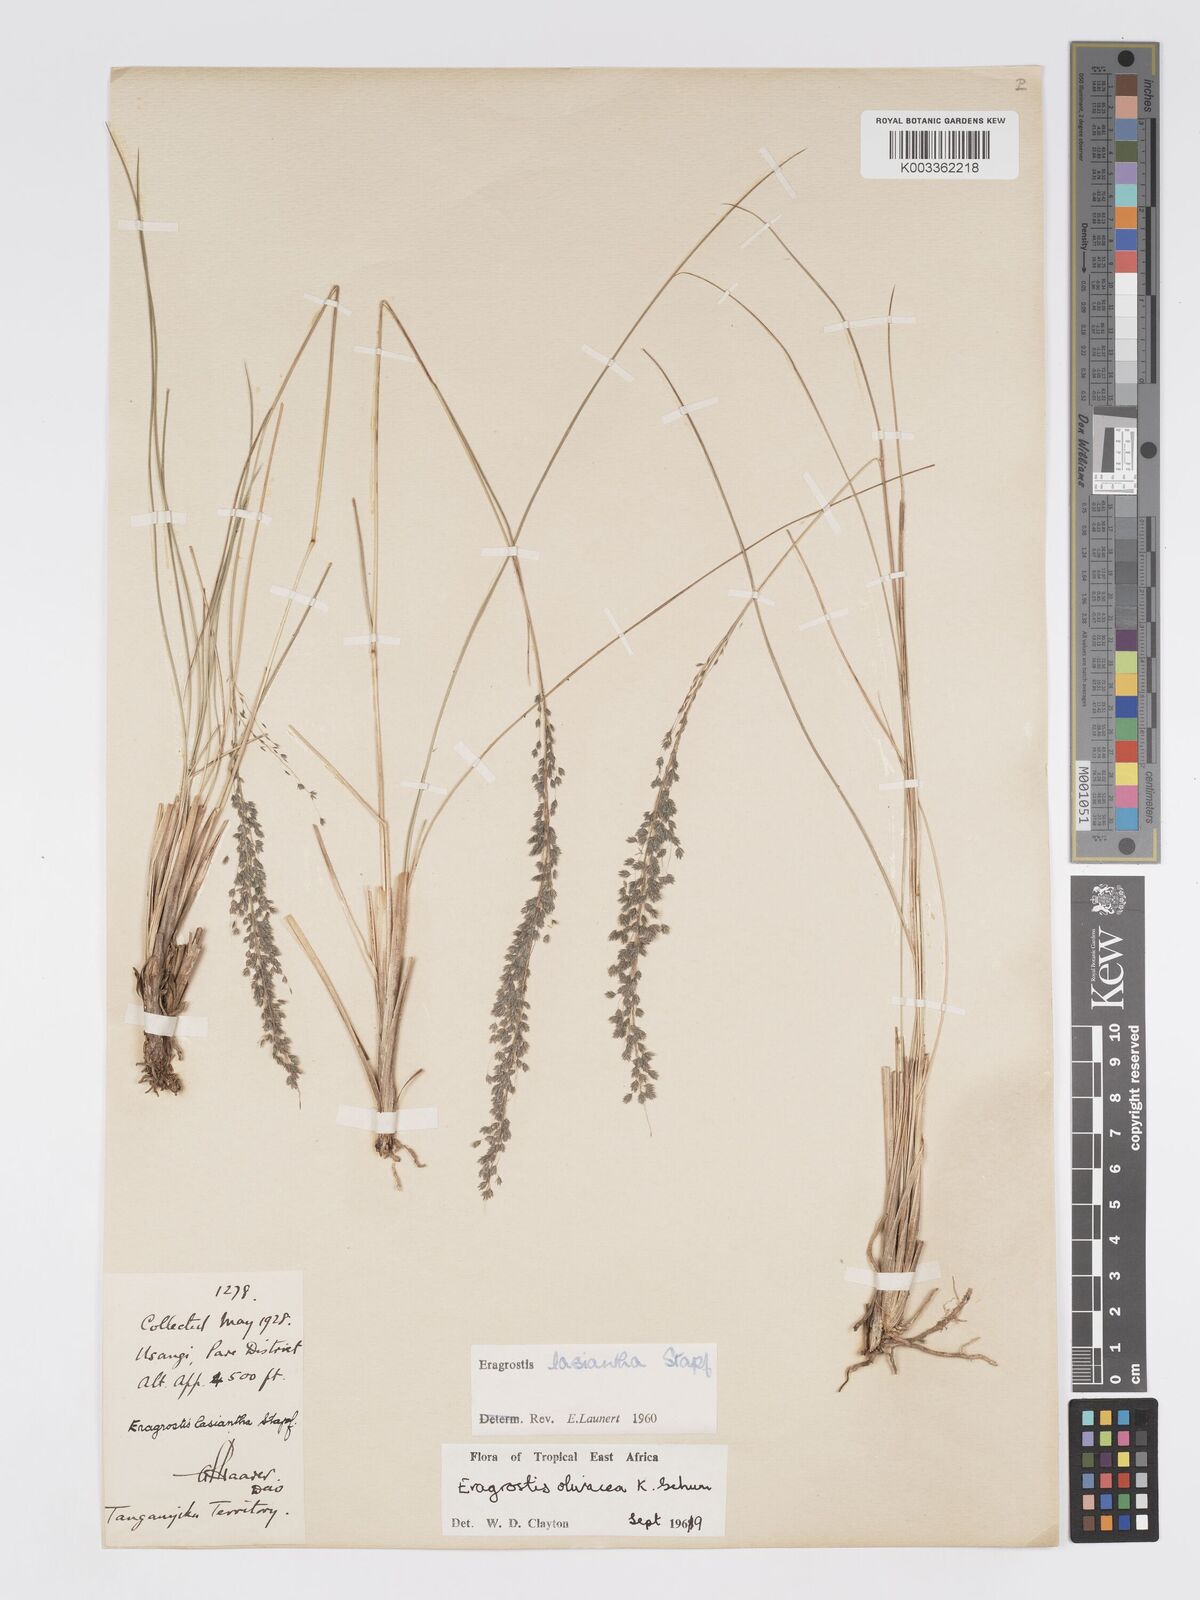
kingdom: Plantae
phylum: Tracheophyta
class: Liliopsida
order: Poales
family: Poaceae
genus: Eragrostis
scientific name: Eragrostis olivacea
